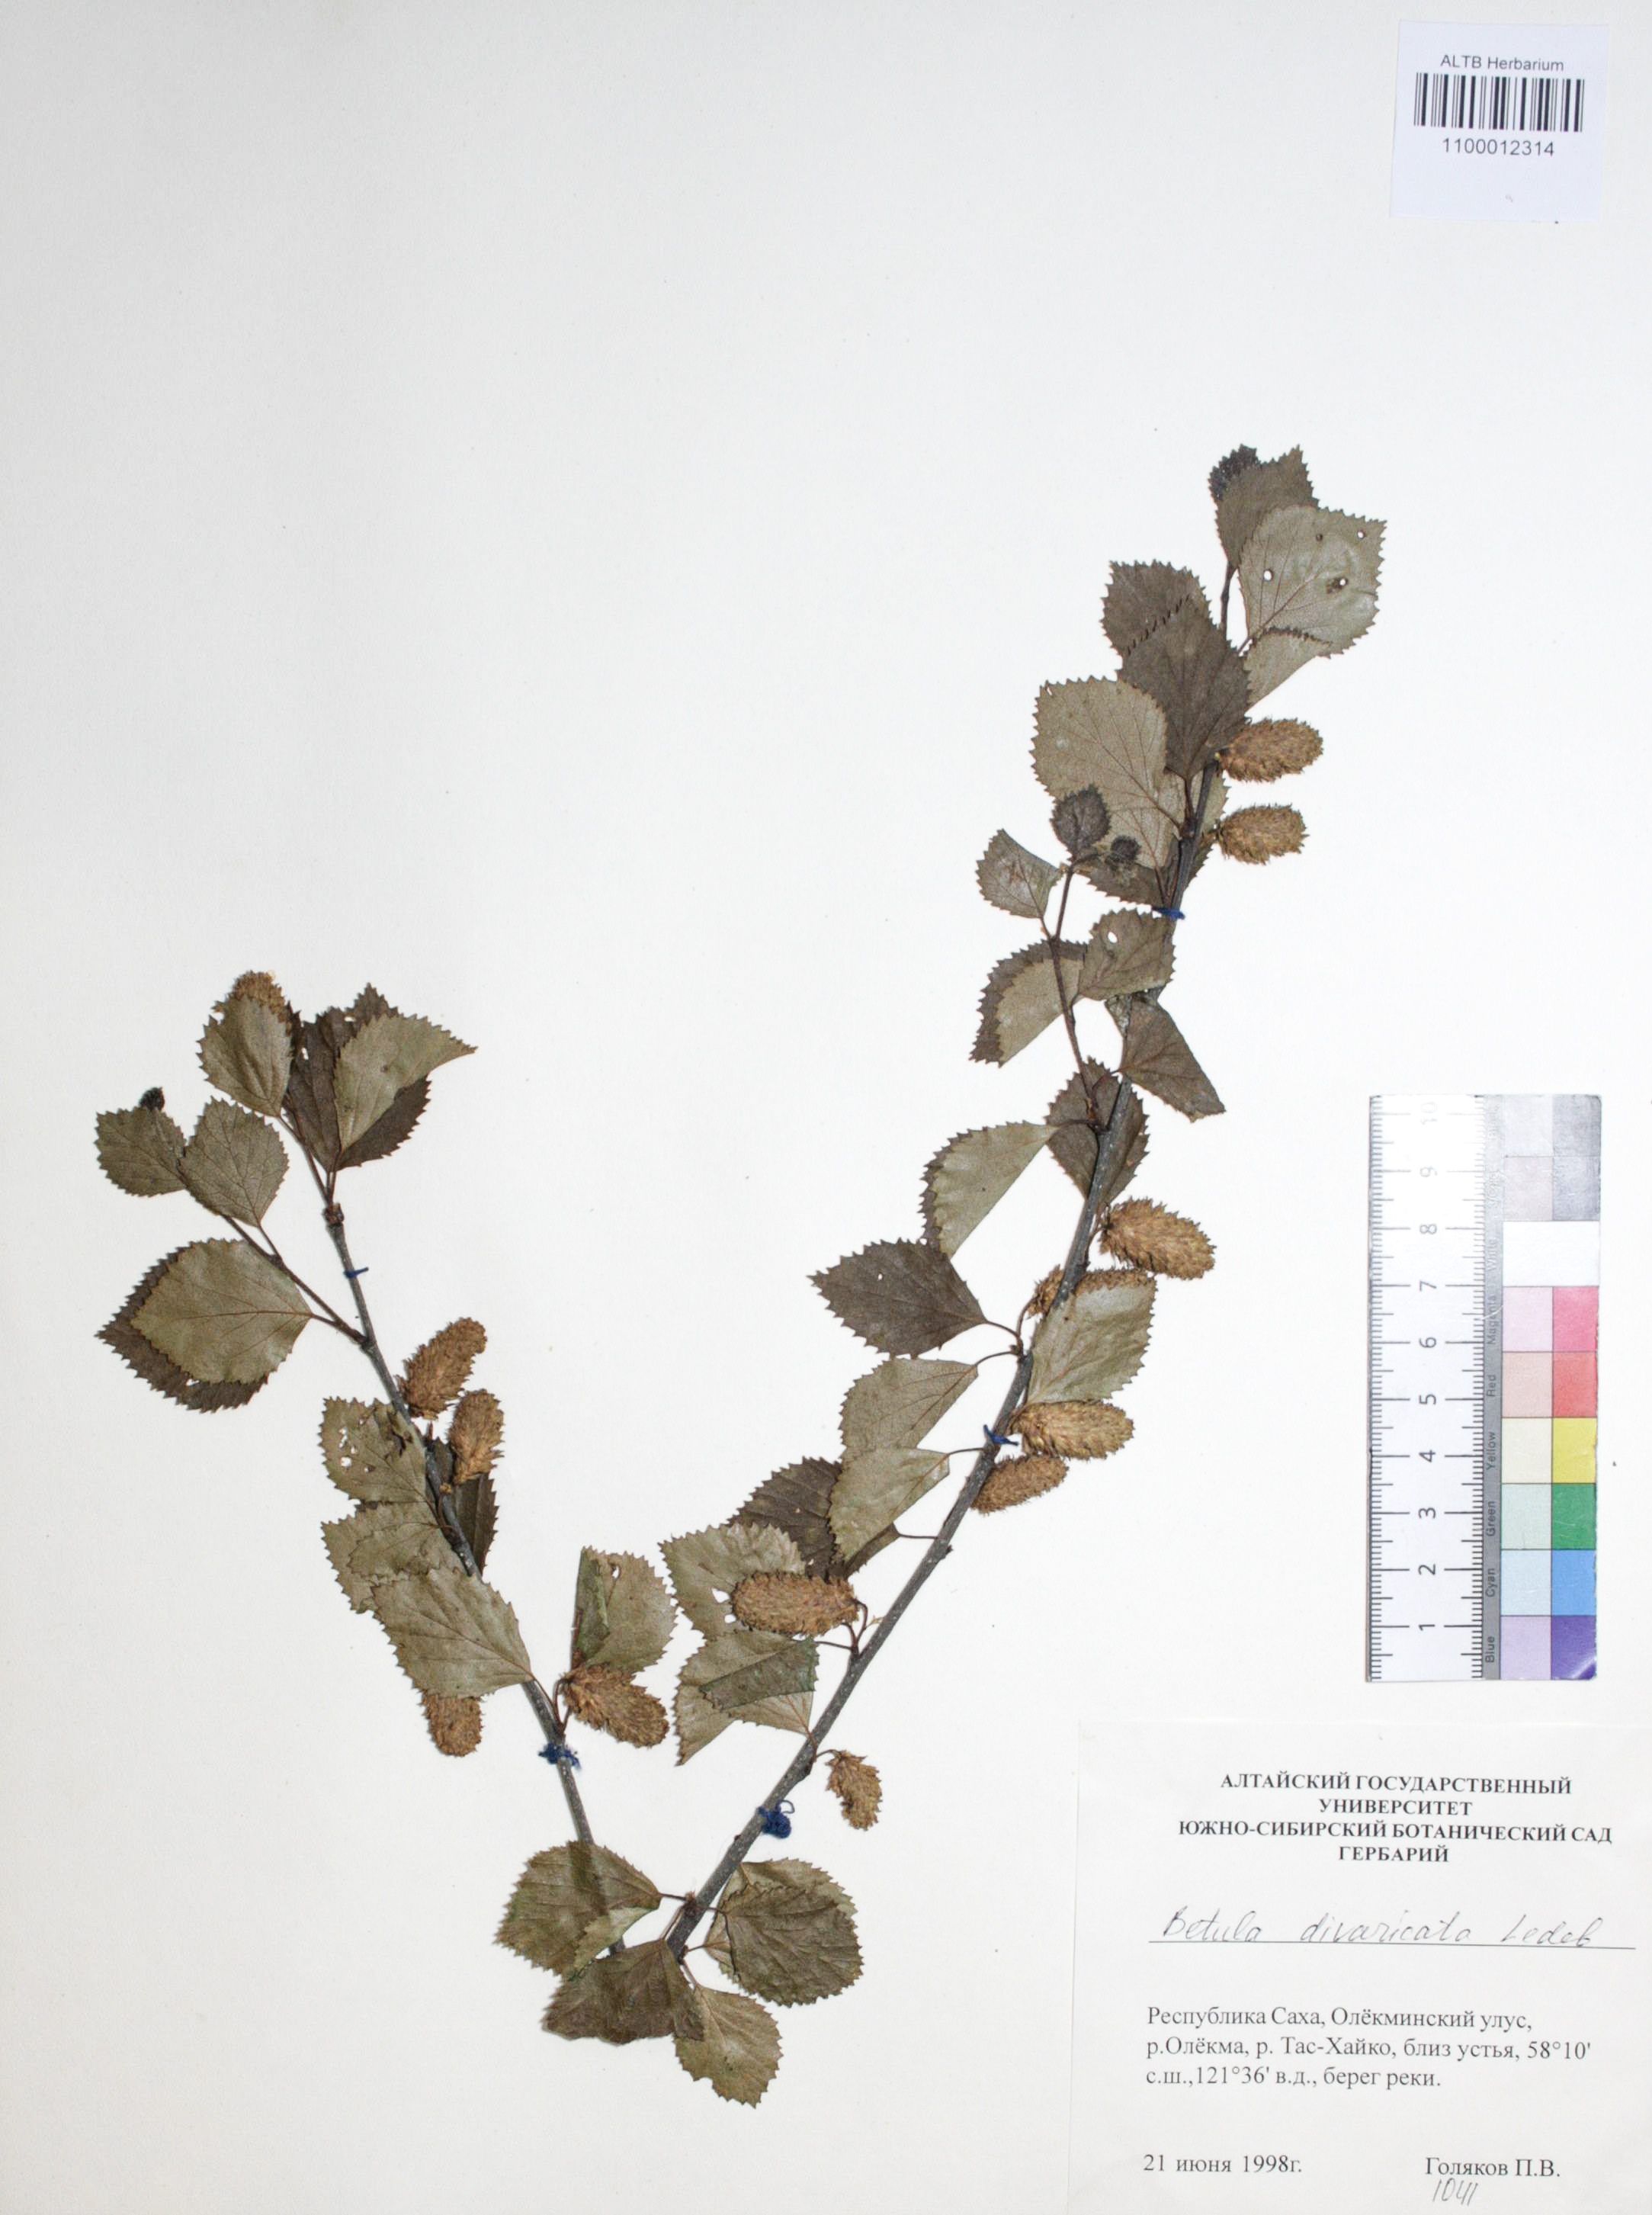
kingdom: Plantae
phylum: Tracheophyta
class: Magnoliopsida
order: Fagales
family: Betulaceae
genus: Betula
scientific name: Betula fruticosa
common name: Japanese bog birch
